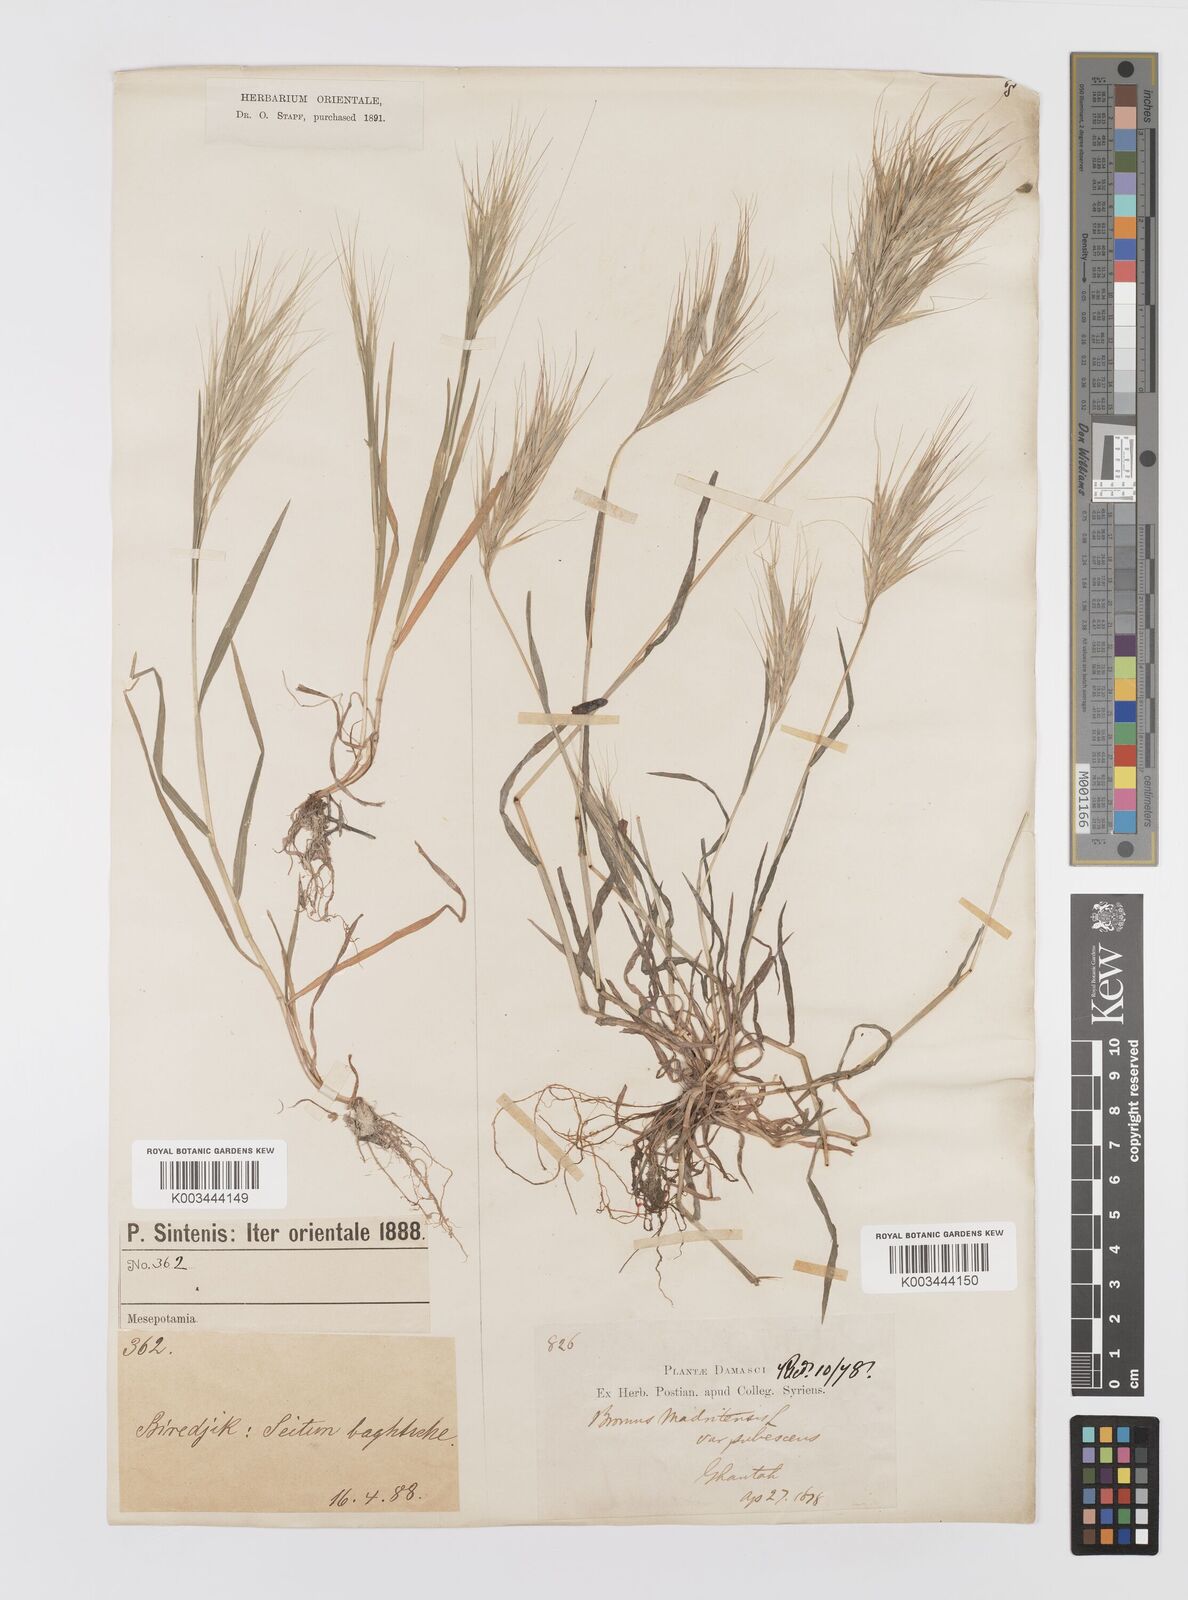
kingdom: Plantae
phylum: Tracheophyta
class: Liliopsida
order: Poales
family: Poaceae
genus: Bromus
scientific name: Bromus madritensis
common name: Compact brome
